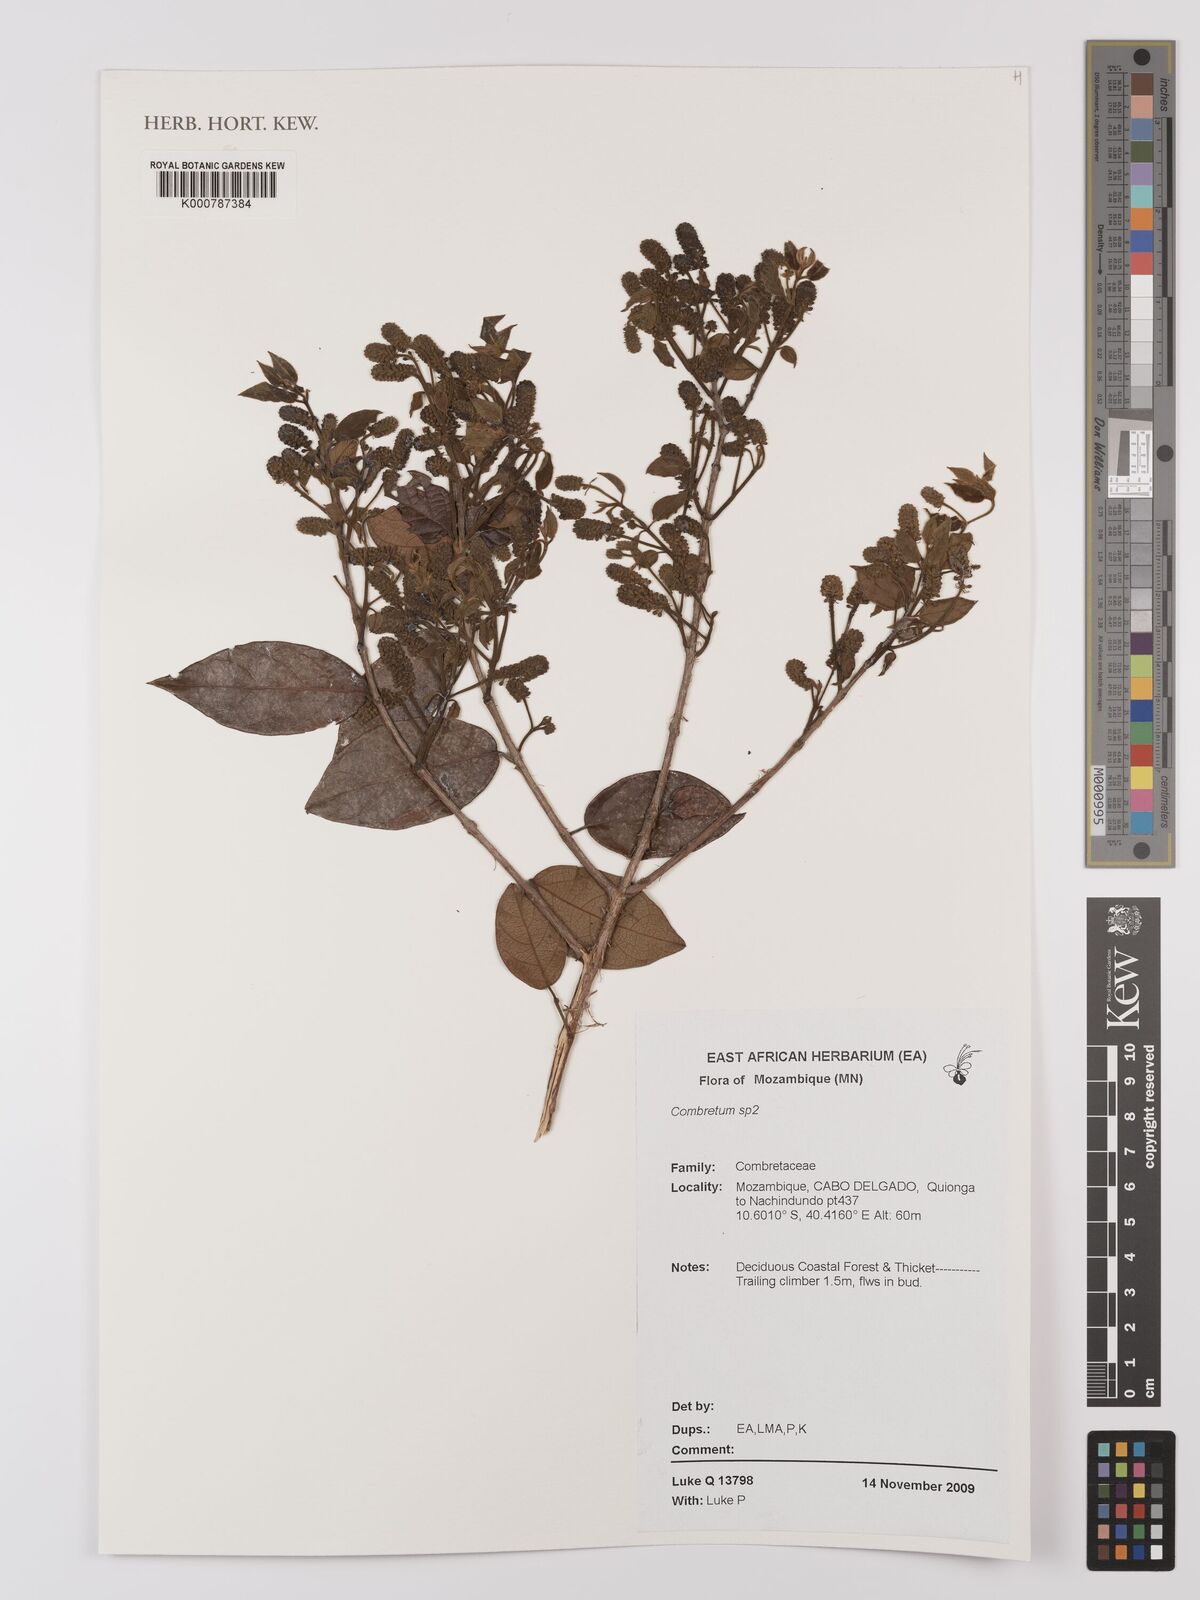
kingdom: Plantae
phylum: Tracheophyta
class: Magnoliopsida
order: Myrtales
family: Combretaceae
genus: Combretum
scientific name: Combretum
